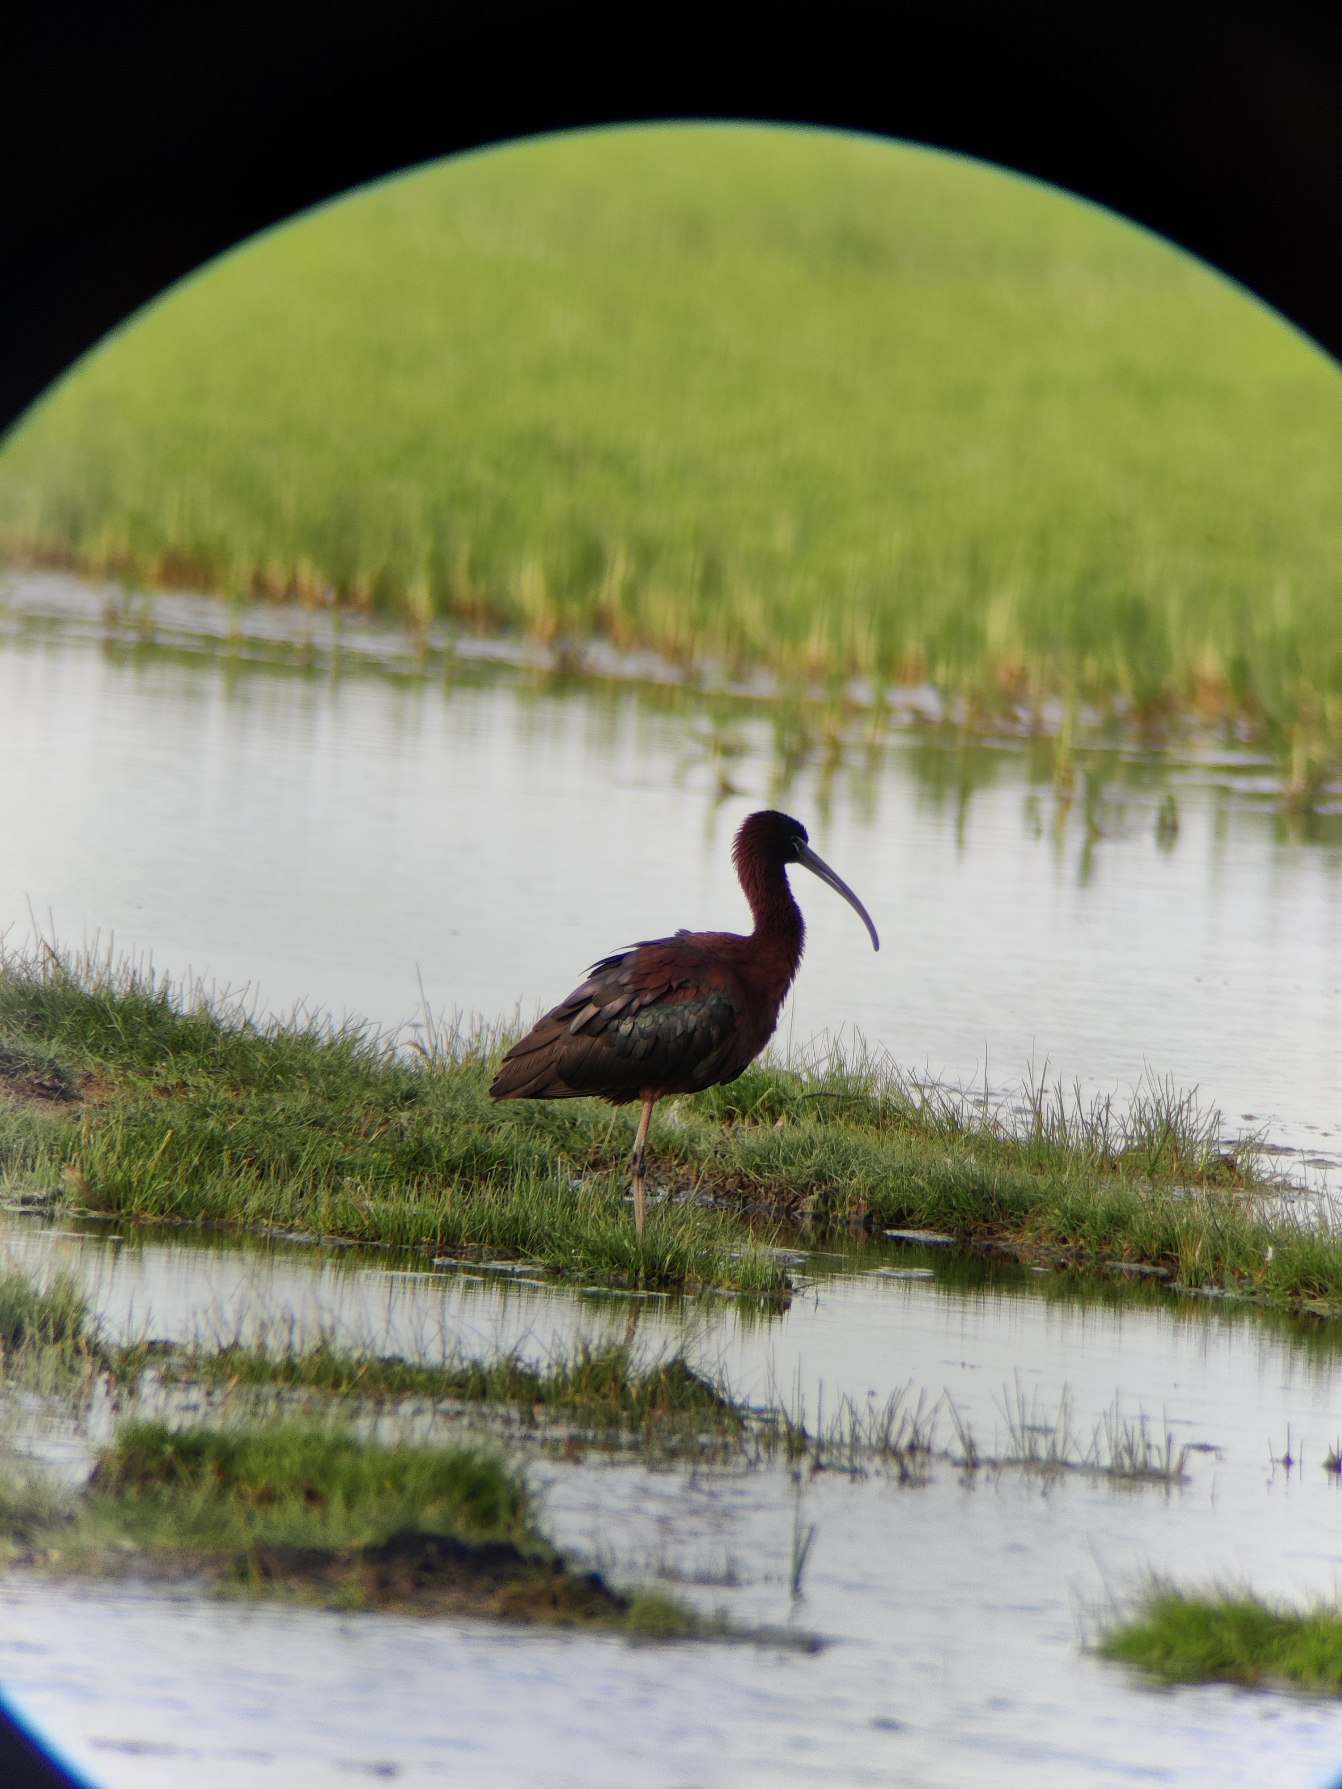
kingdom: Animalia
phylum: Chordata
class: Aves
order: Pelecaniformes
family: Threskiornithidae
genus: Plegadis
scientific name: Plegadis falcinellus
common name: Sort ibis
